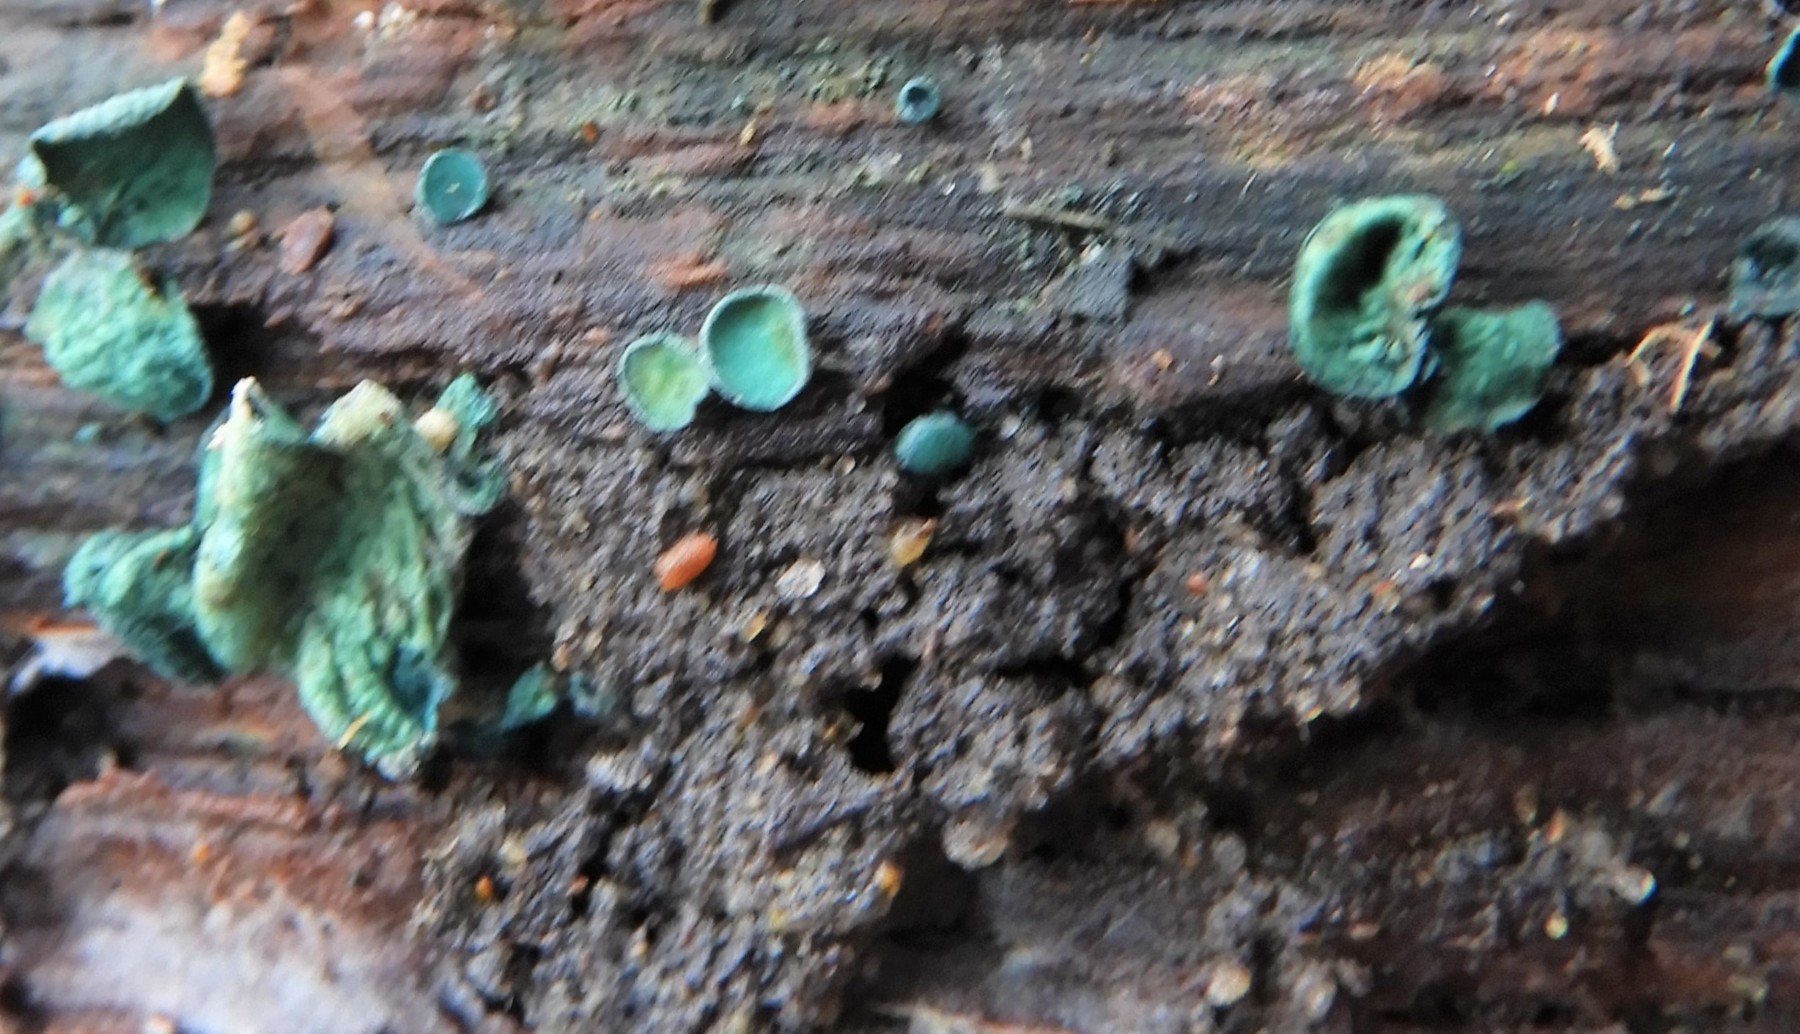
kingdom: Fungi
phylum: Ascomycota
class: Leotiomycetes
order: Helotiales
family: Chlorociboriaceae
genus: Chlorociboria
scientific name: Chlorociboria aeruginascens
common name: almindelig grønskive
